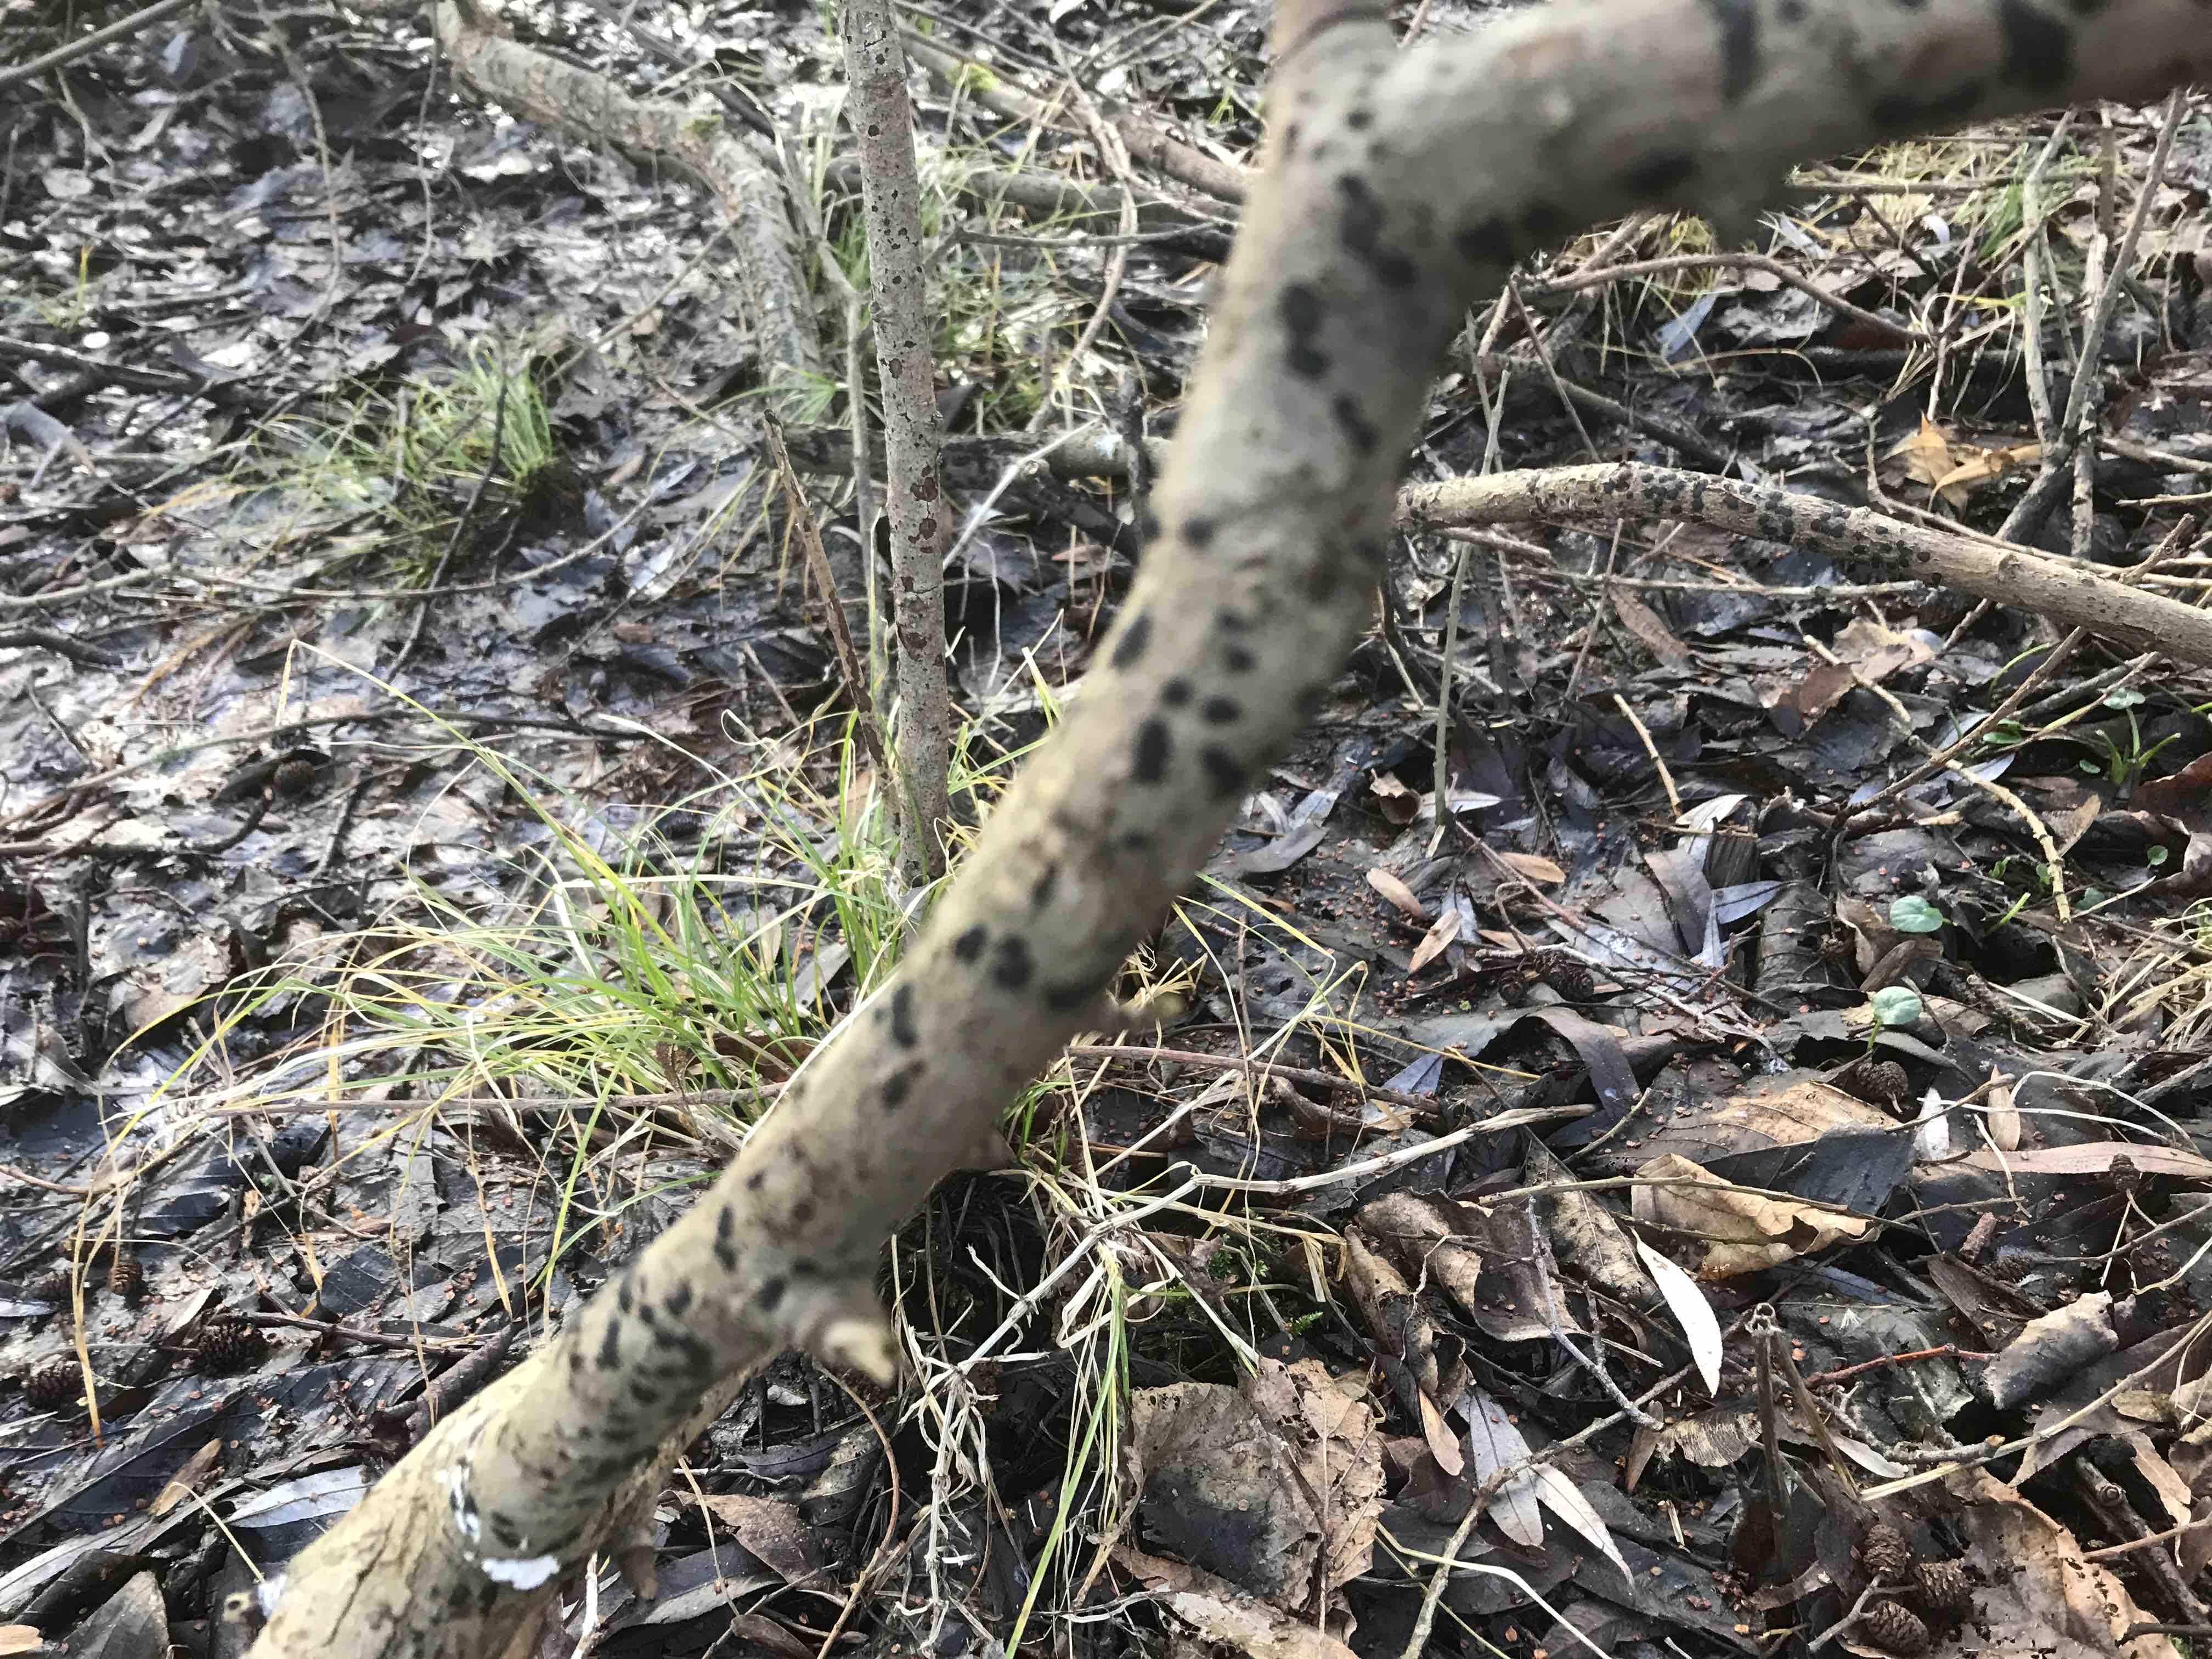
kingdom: Fungi
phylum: Ascomycota
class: Sordariomycetes
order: Xylariales
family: Diatrypaceae
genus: Diatrype
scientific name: Diatrype bullata
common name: pile-kulskorpe
